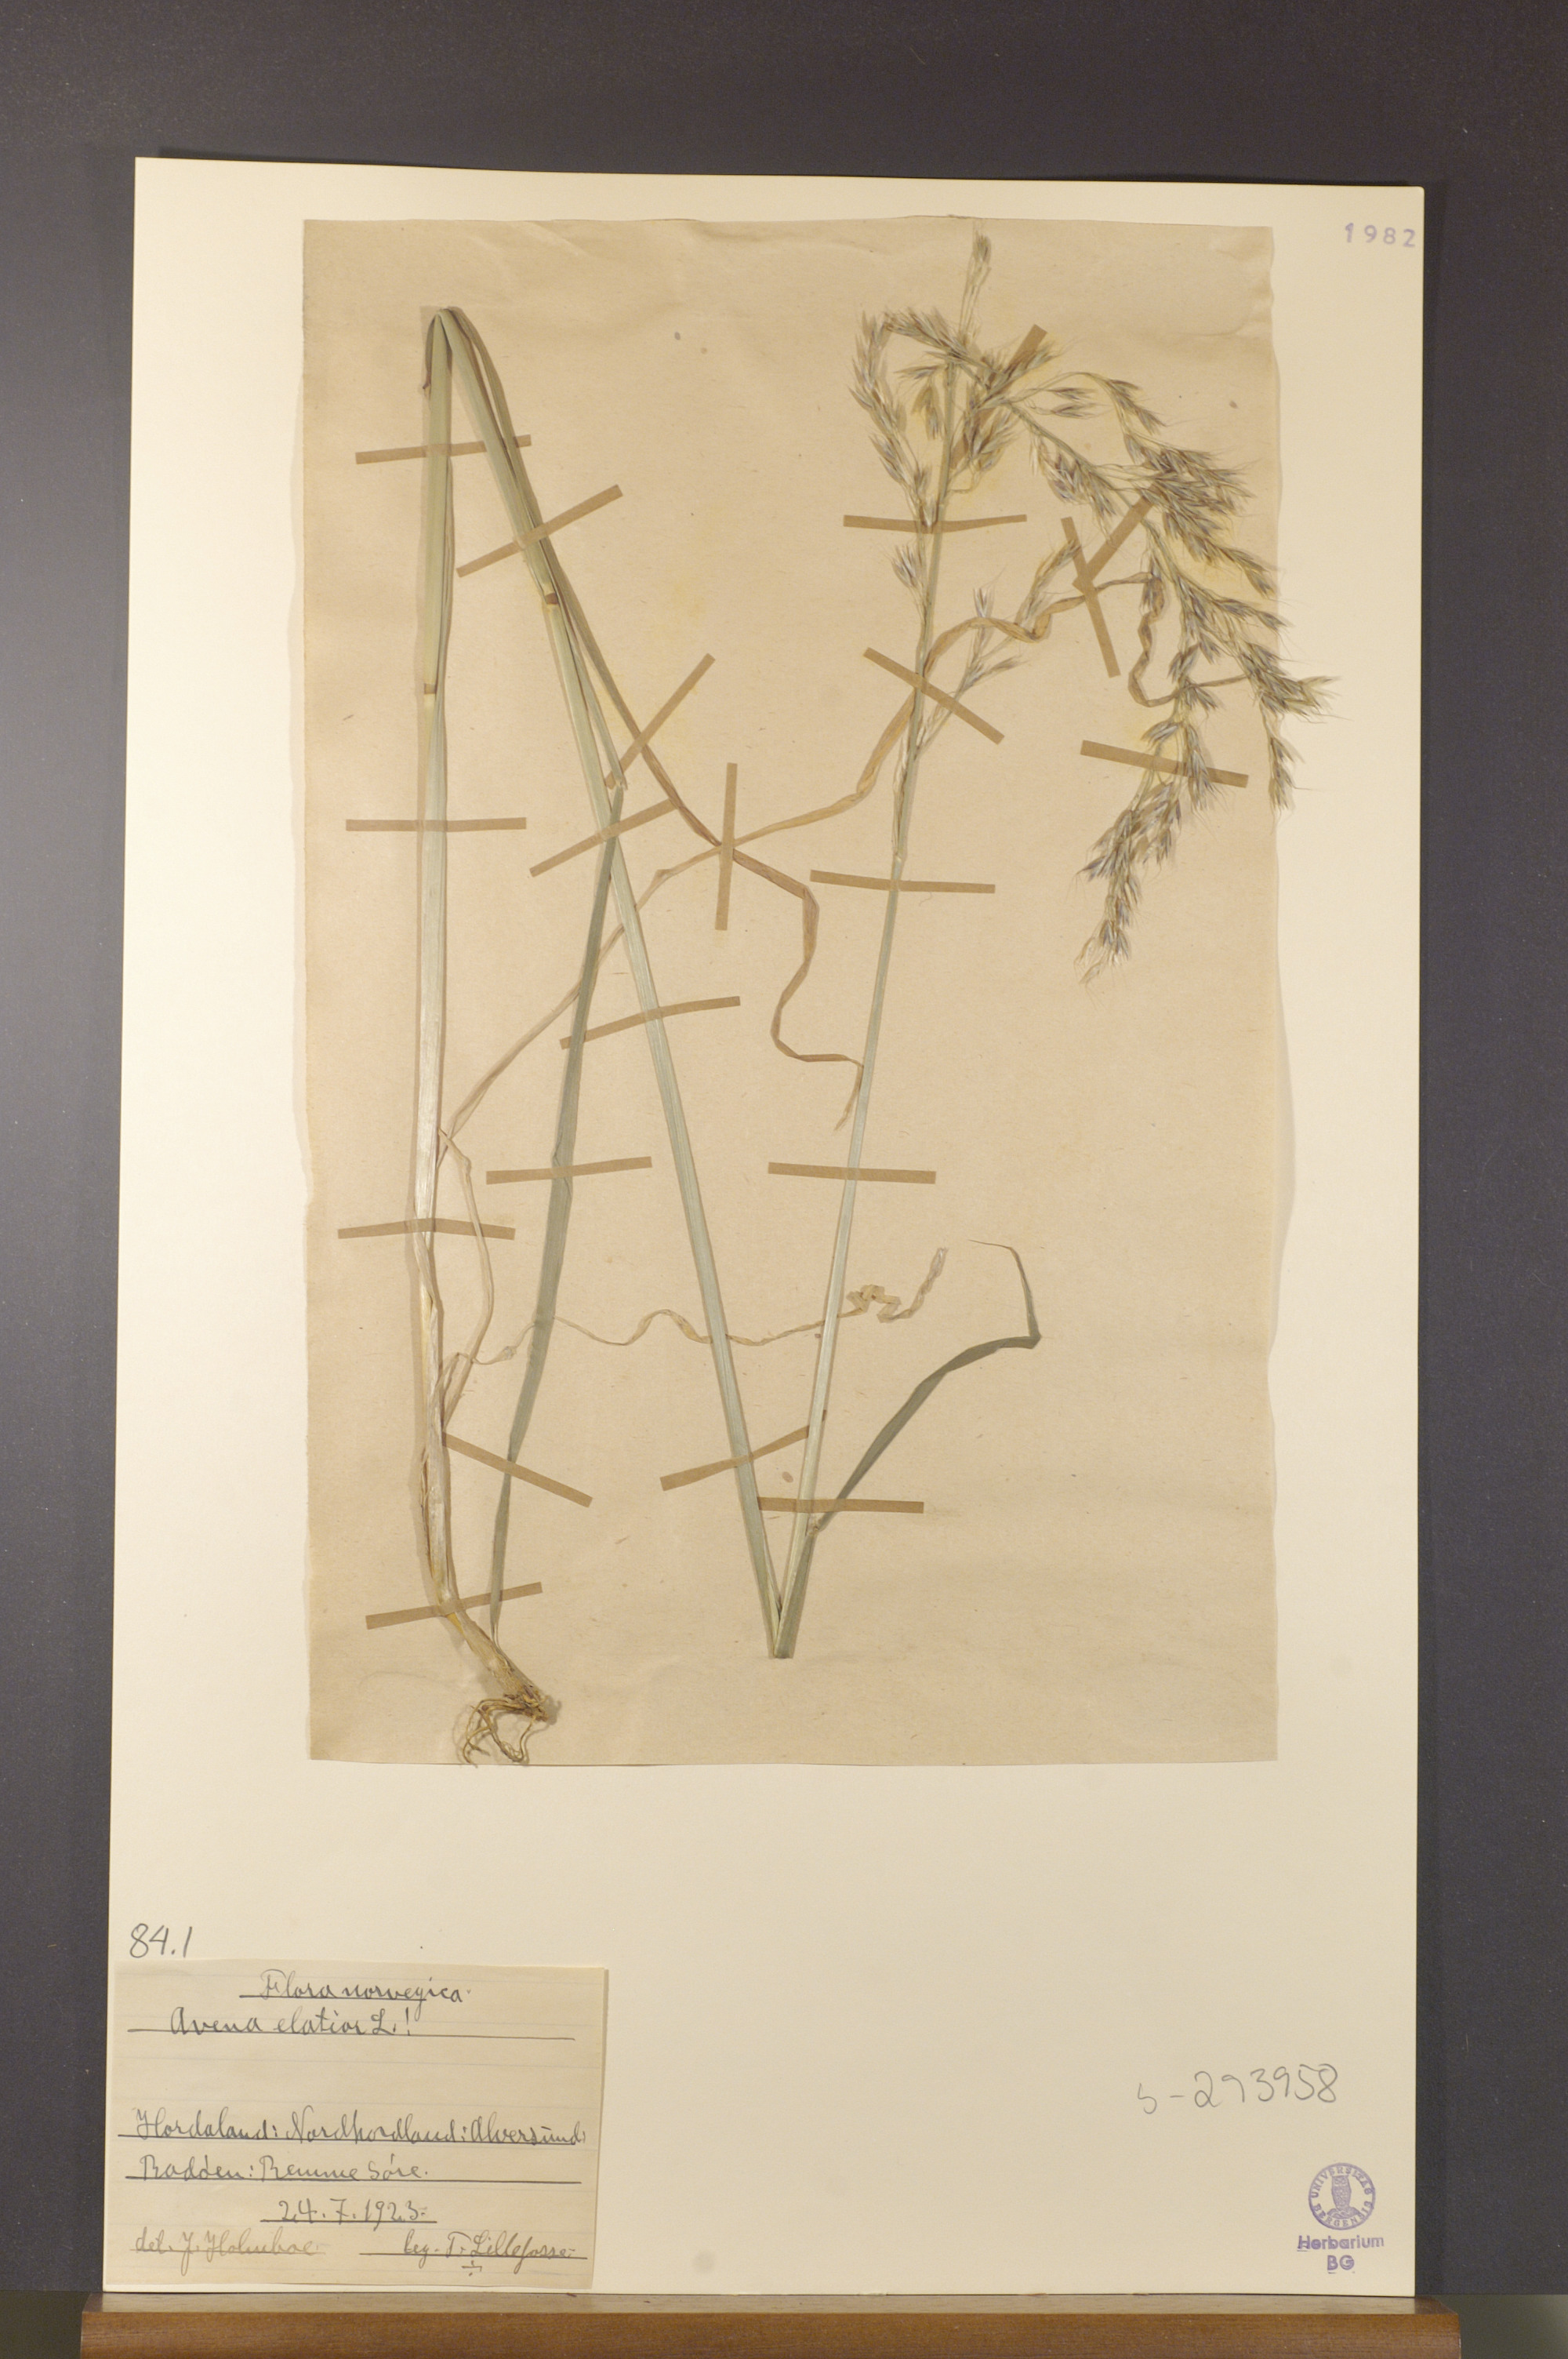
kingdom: Plantae
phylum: Tracheophyta
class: Liliopsida
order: Poales
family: Poaceae
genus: Arrhenatherum
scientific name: Arrhenatherum elatius
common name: Tall oatgrass
